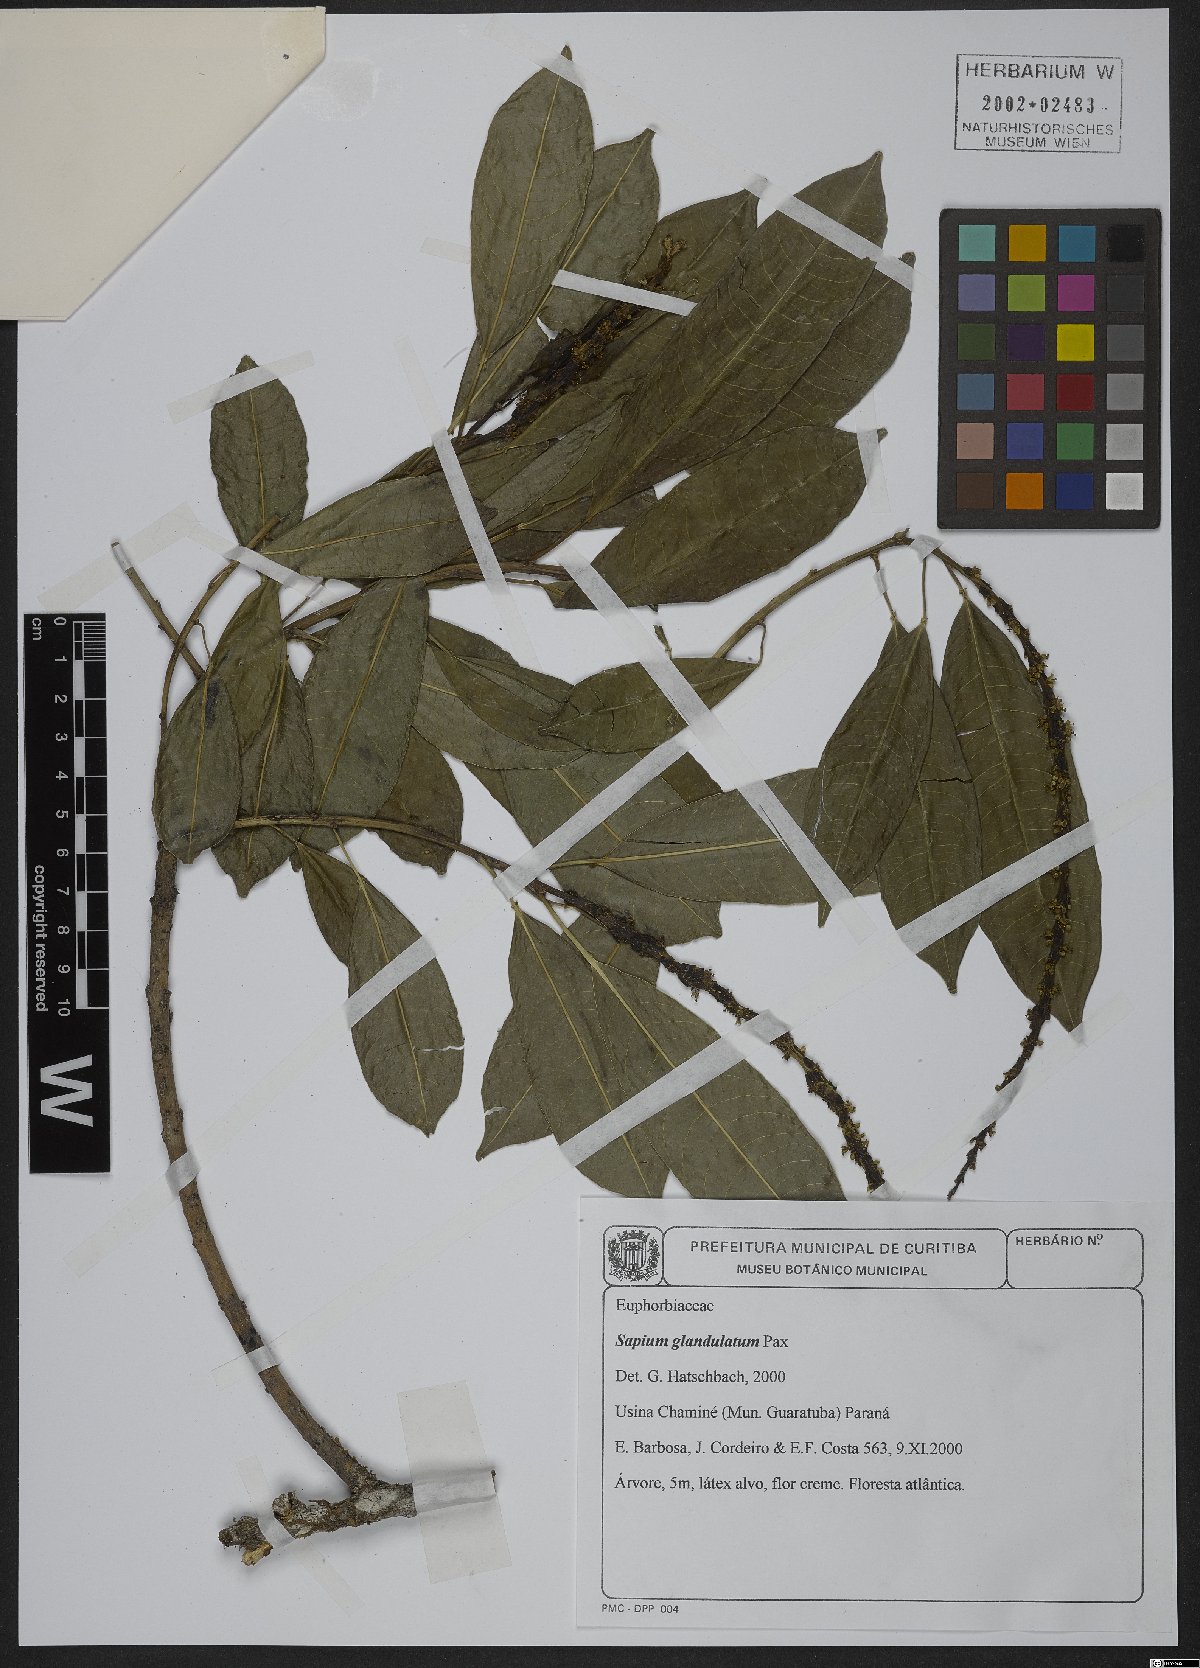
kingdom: Plantae
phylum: Tracheophyta
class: Magnoliopsida
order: Malpighiales
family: Euphorbiaceae
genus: Sapium
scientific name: Sapium glandulosum
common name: Milktree
